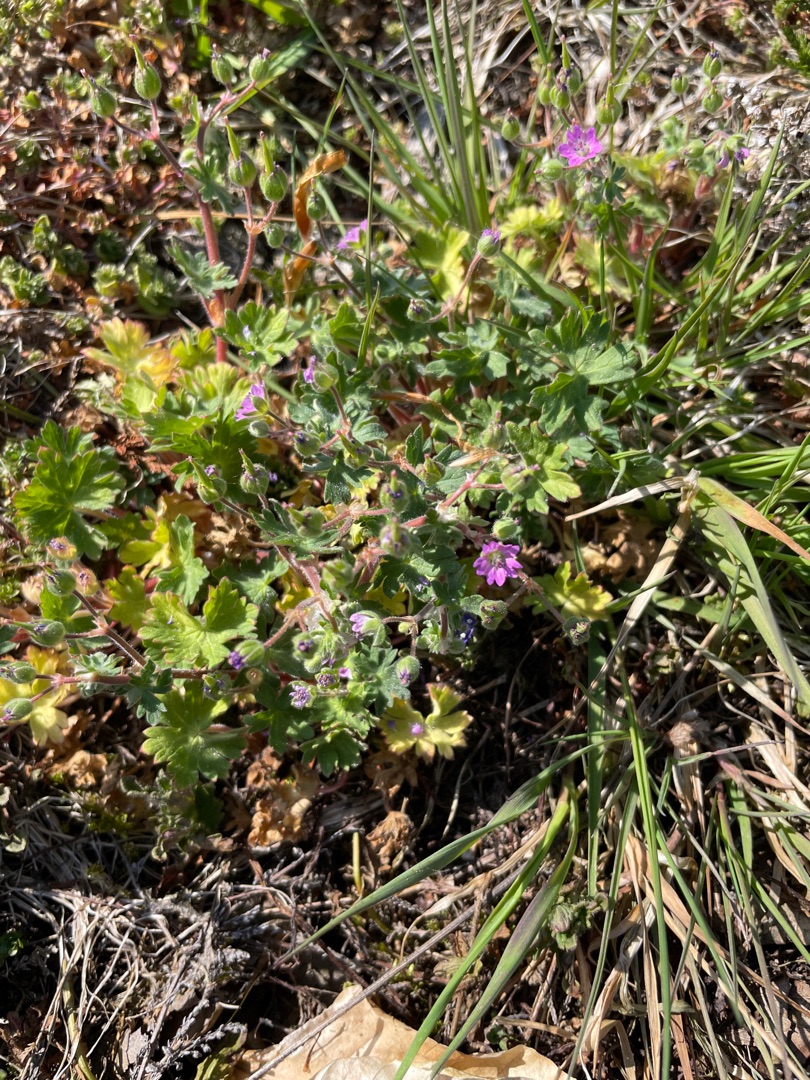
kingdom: Plantae
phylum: Tracheophyta
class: Magnoliopsida
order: Geraniales
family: Geraniaceae
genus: Geranium
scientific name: Geranium molle
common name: Blød storkenæb
